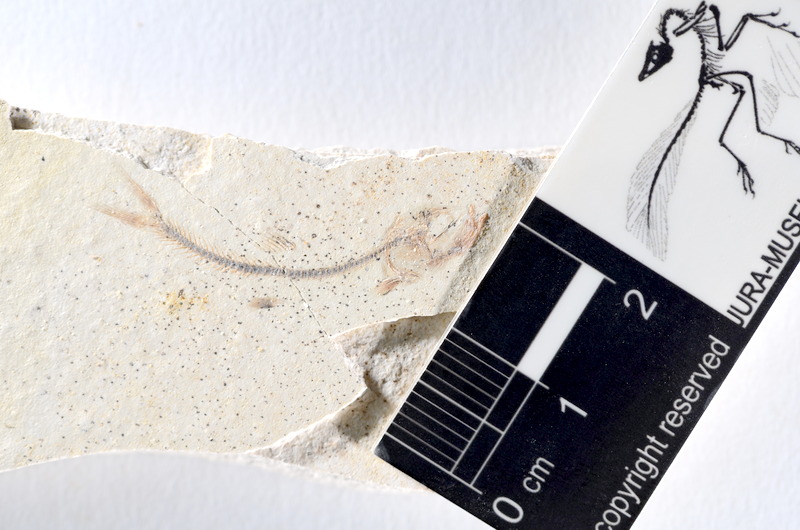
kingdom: Animalia
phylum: Chordata
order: Salmoniformes
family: Orthogonikleithridae
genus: Orthogonikleithrus
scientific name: Orthogonikleithrus hoelli
